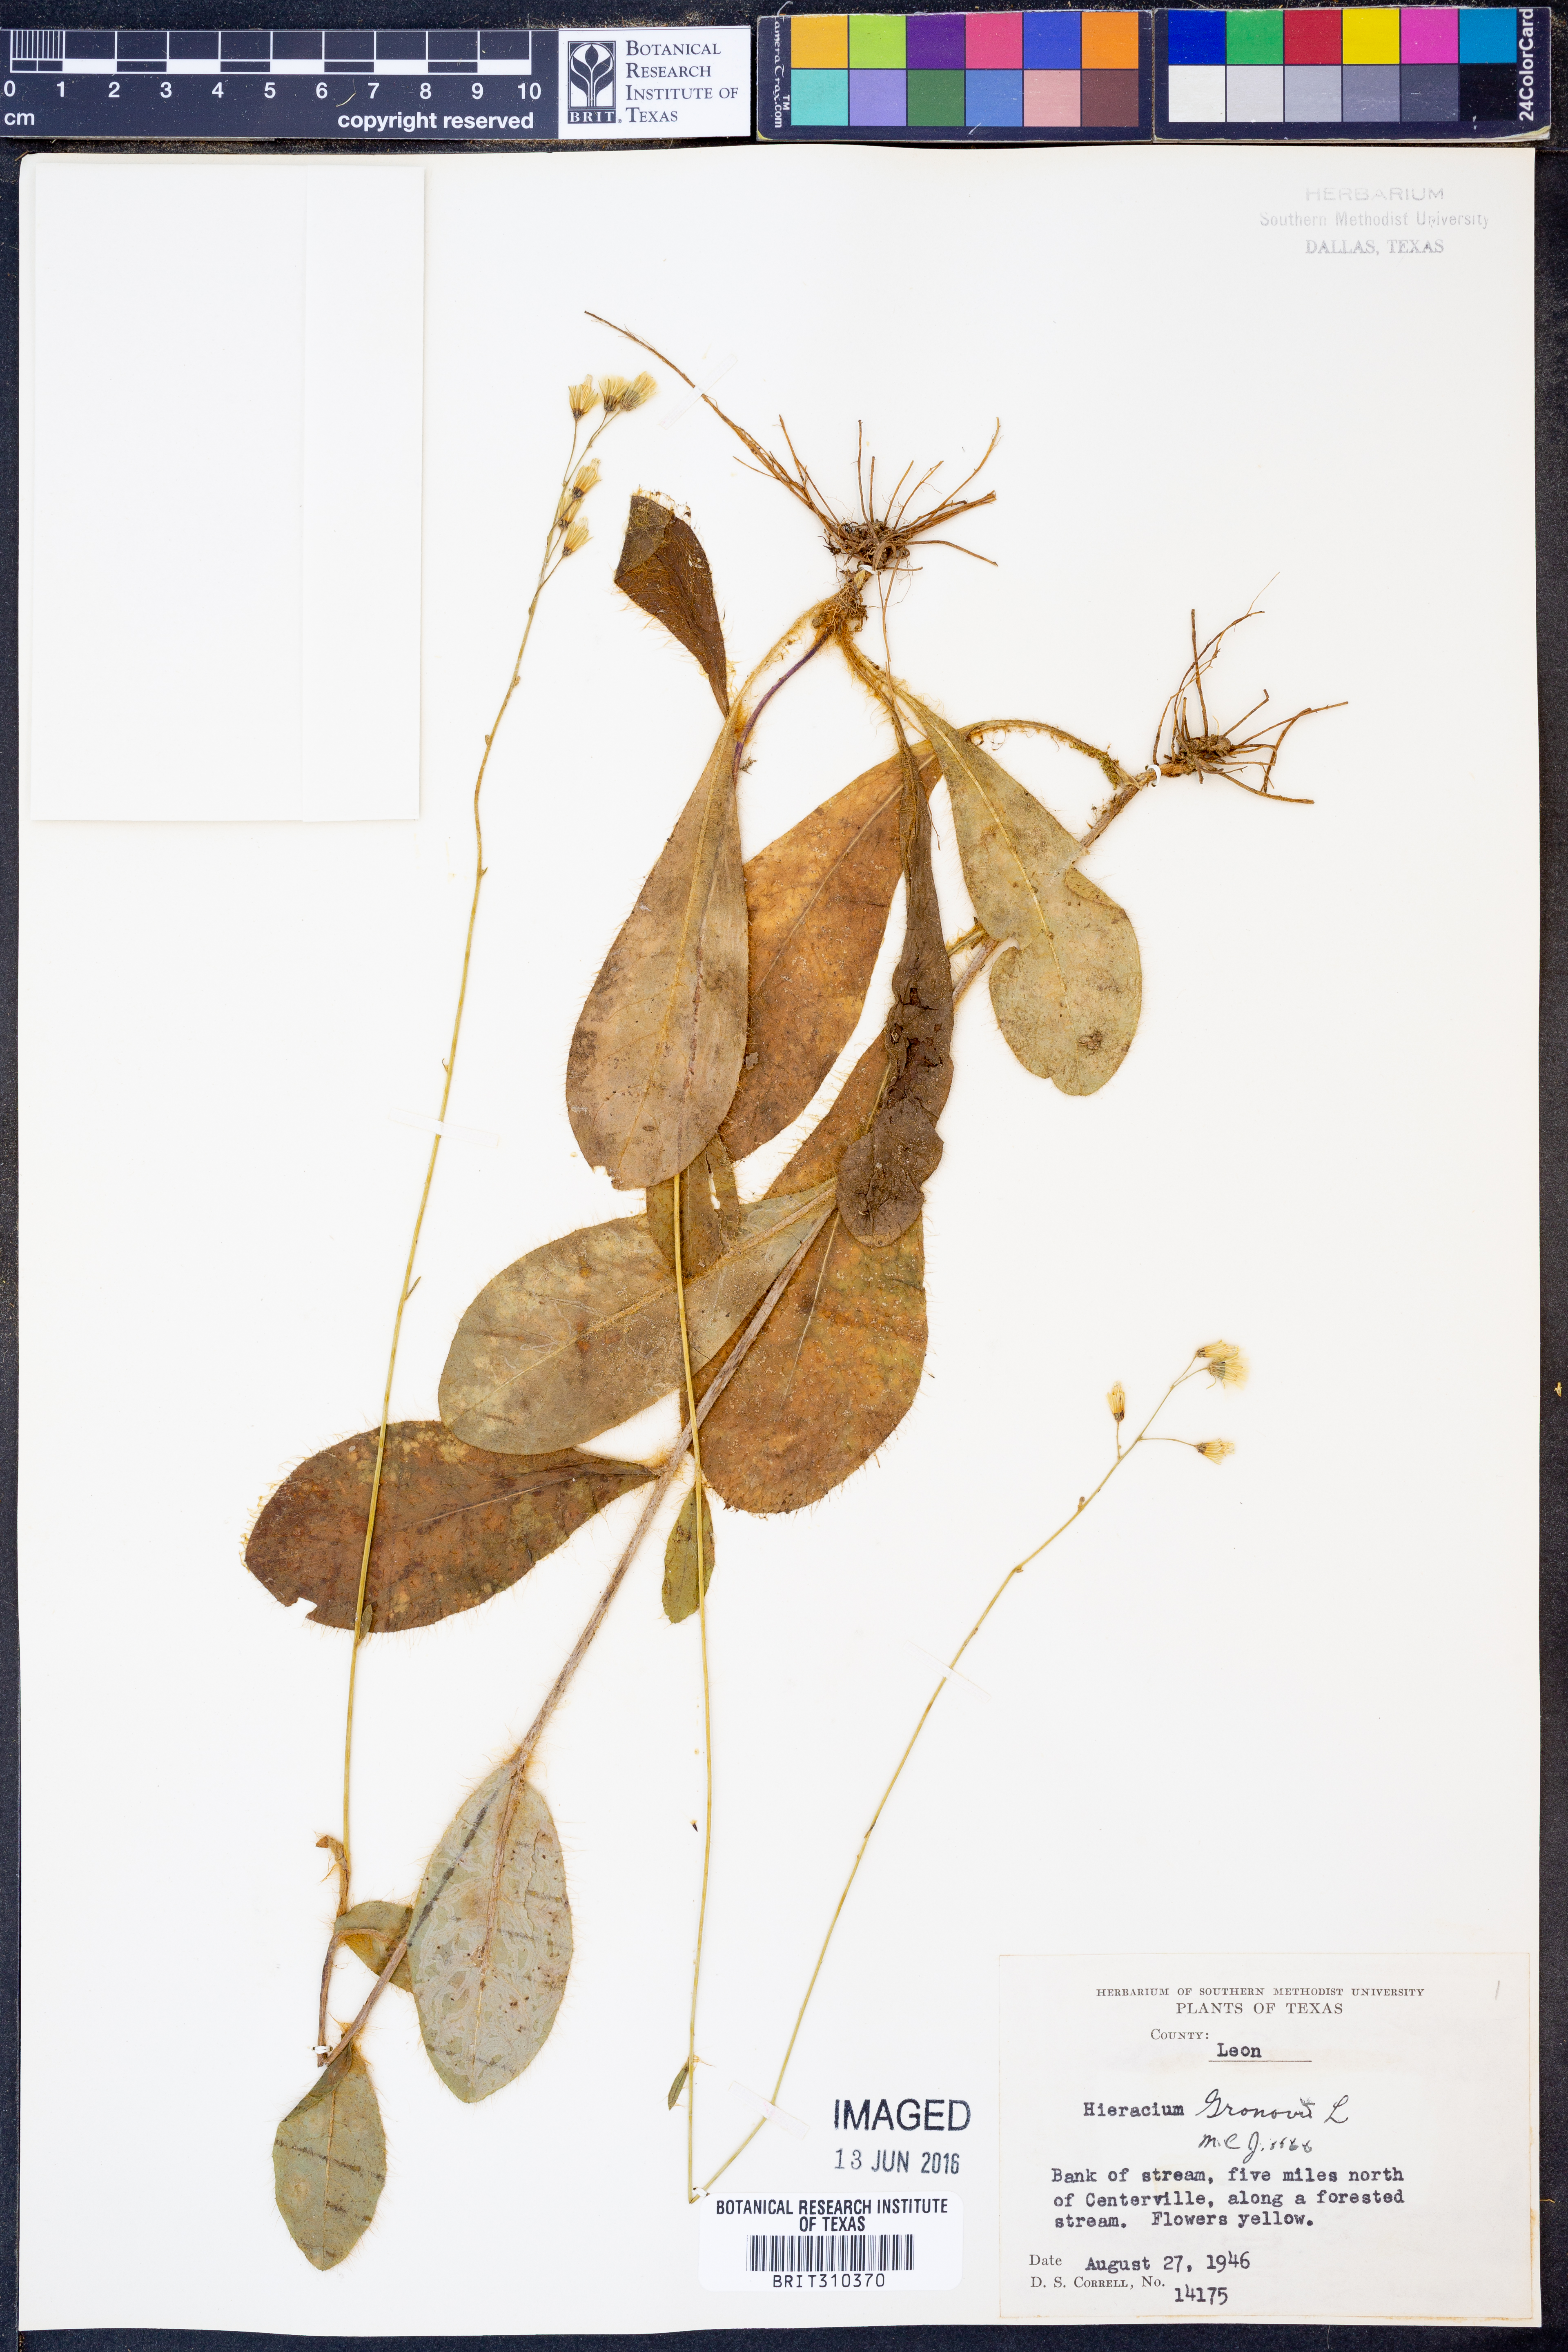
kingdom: Plantae
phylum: Tracheophyta
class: Magnoliopsida
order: Asterales
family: Asteraceae
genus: Hieracium
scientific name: Hieracium gronovii
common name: Beaked hawkweed
